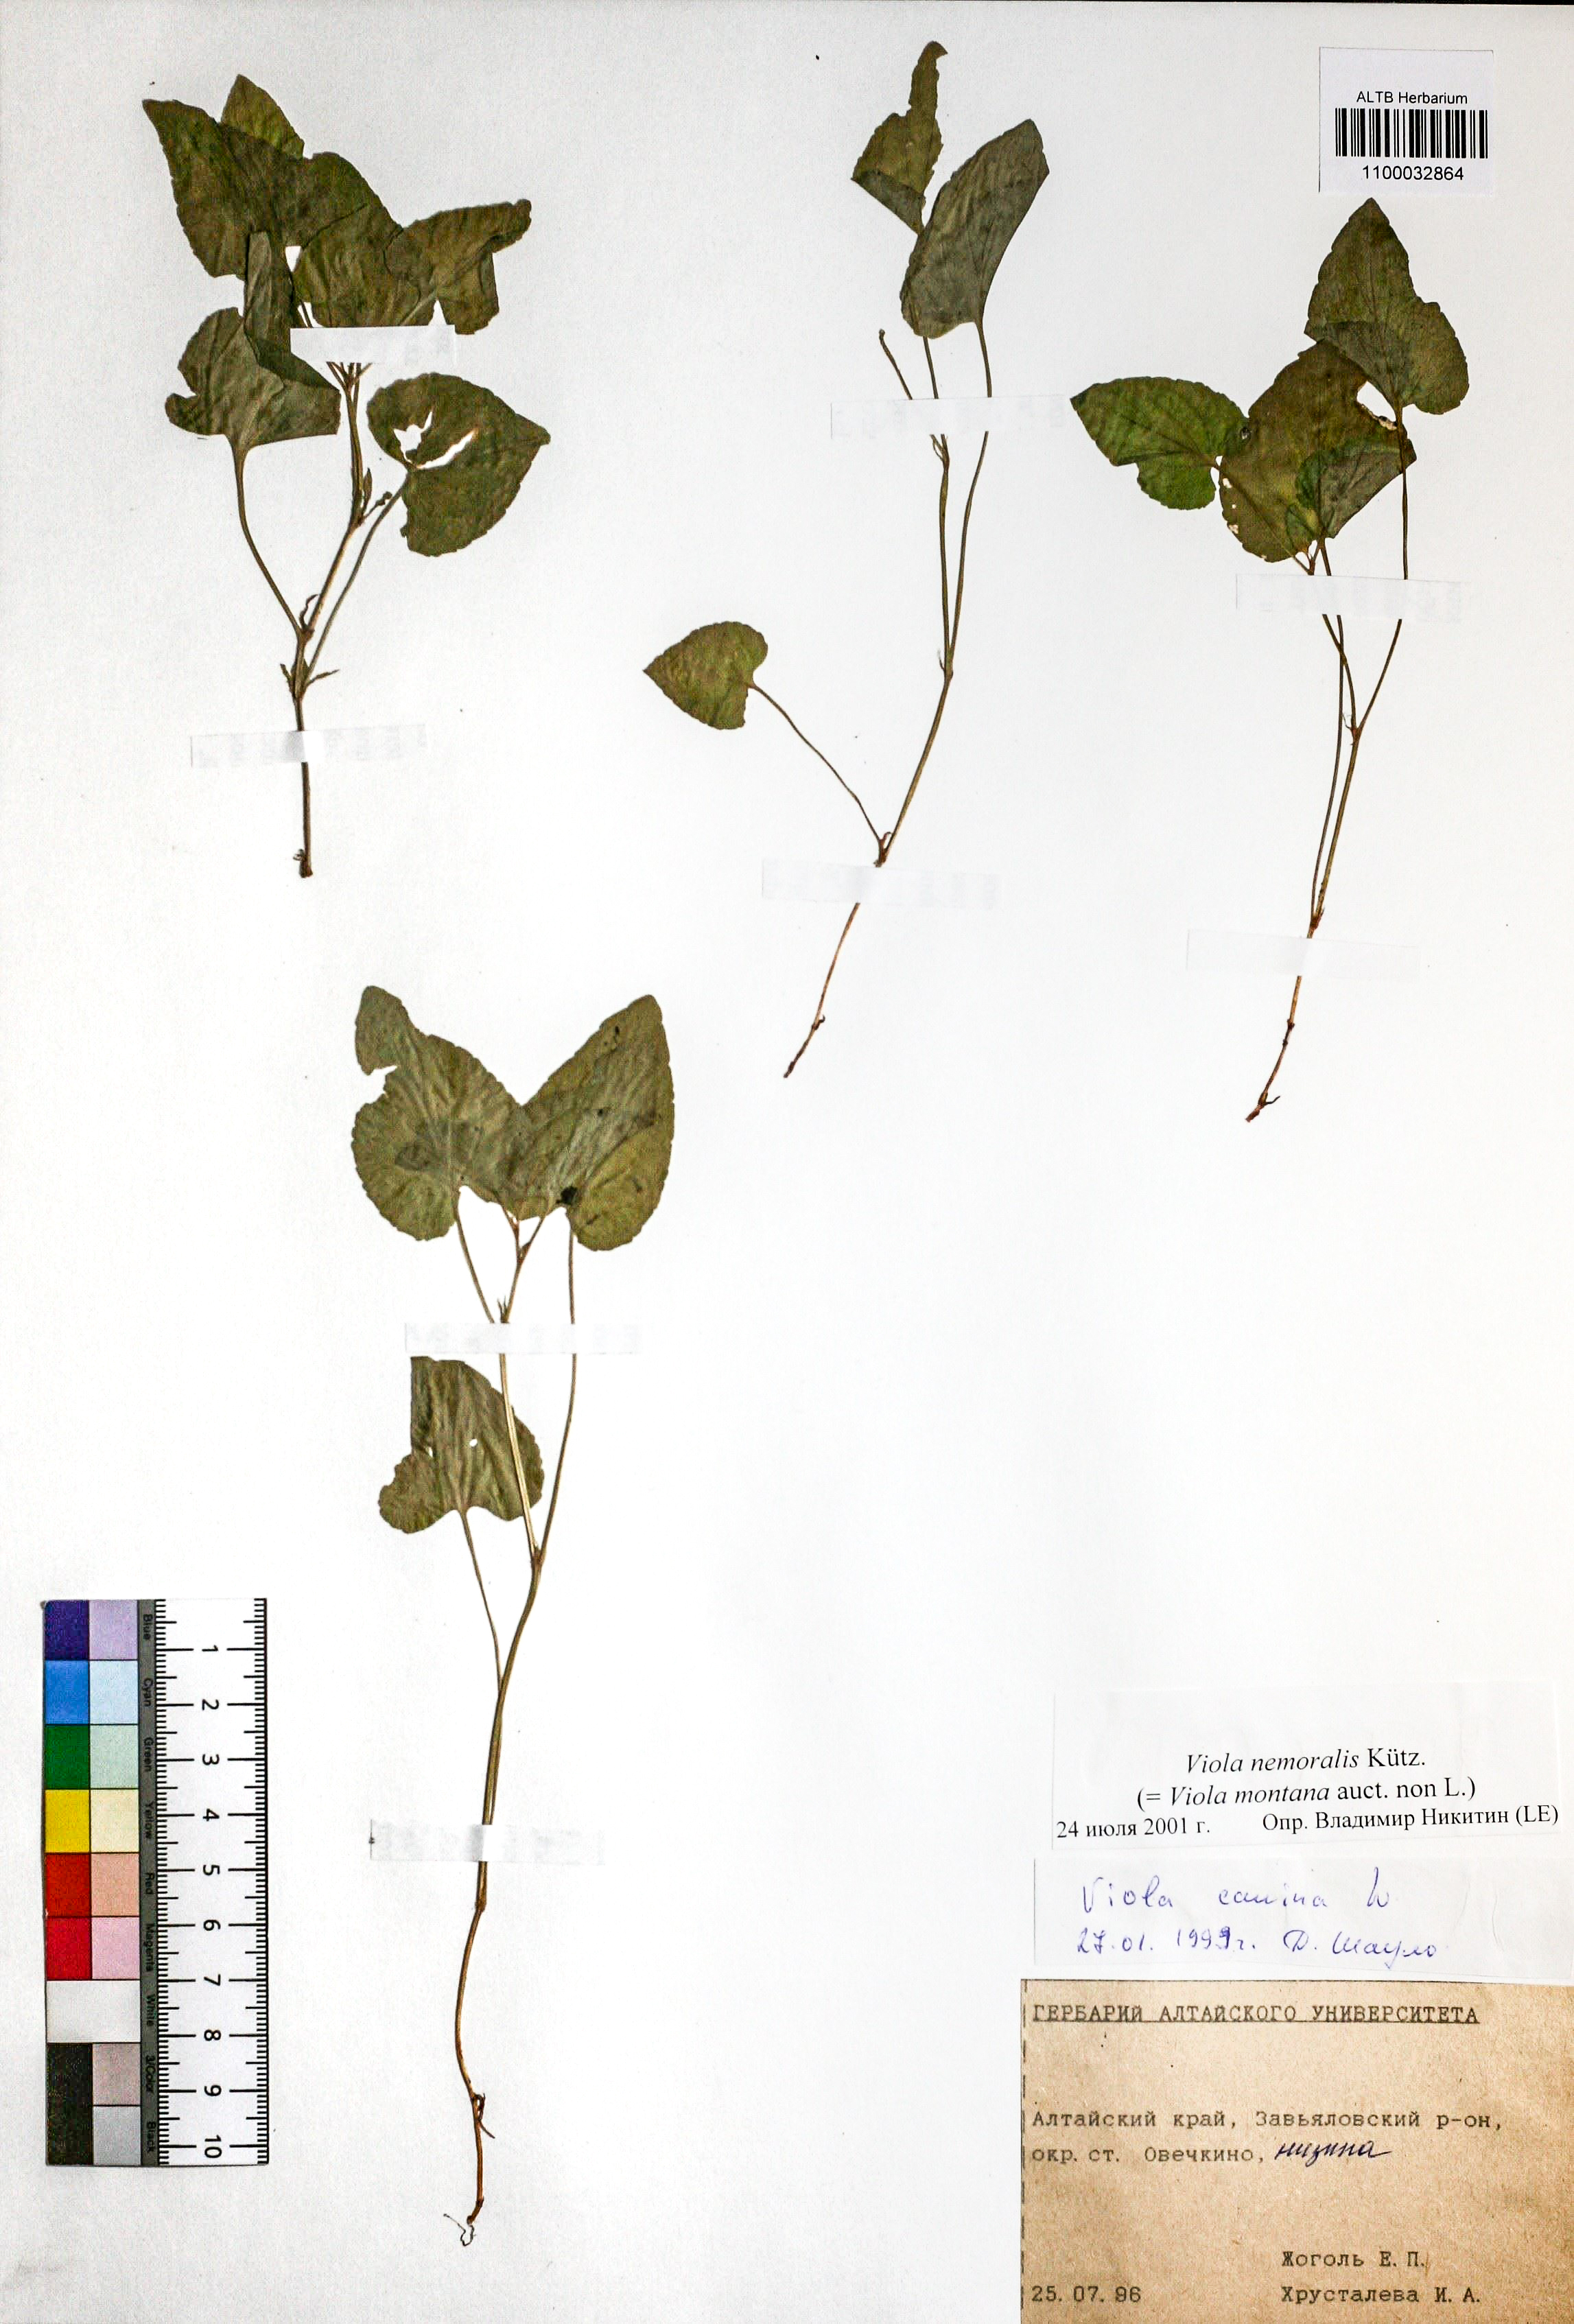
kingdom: Plantae
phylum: Tracheophyta
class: Magnoliopsida
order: Malpighiales
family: Violaceae
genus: Viola
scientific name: Viola ruppii
